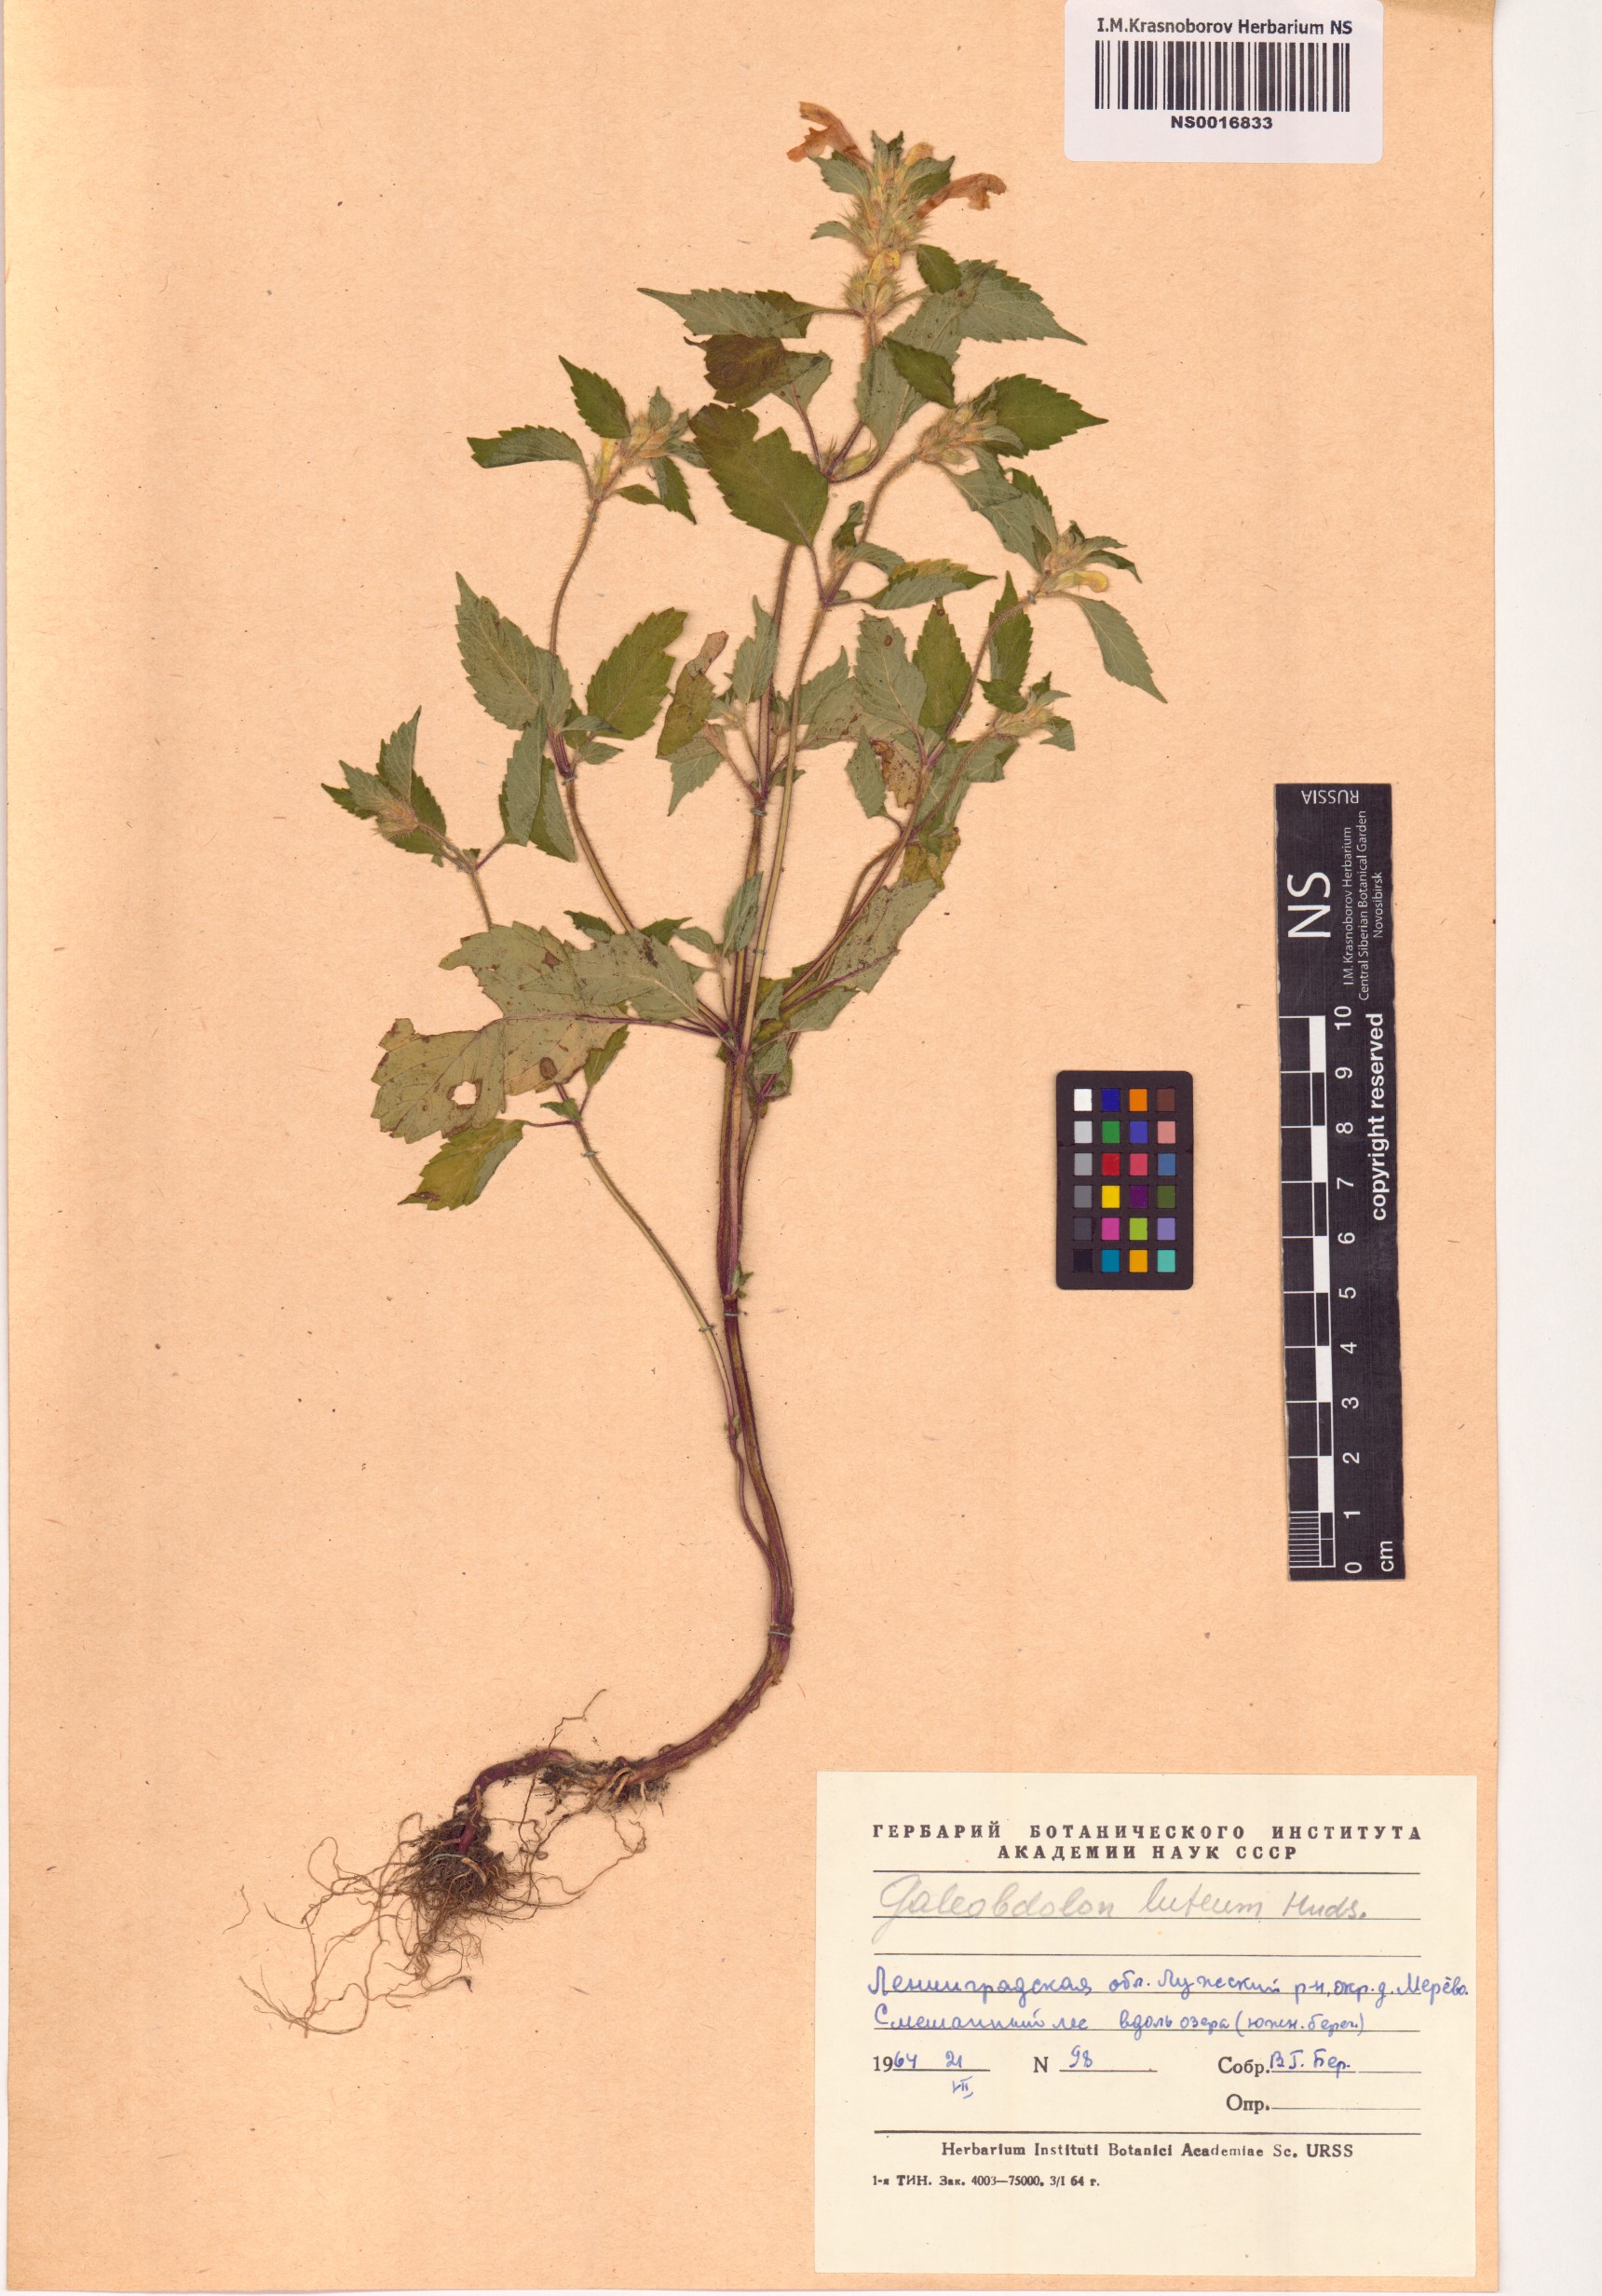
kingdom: Plantae
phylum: Tracheophyta
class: Magnoliopsida
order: Lamiales
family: Lamiaceae
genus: Lamium
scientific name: Lamium galeobdolon
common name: Yellow archangel
